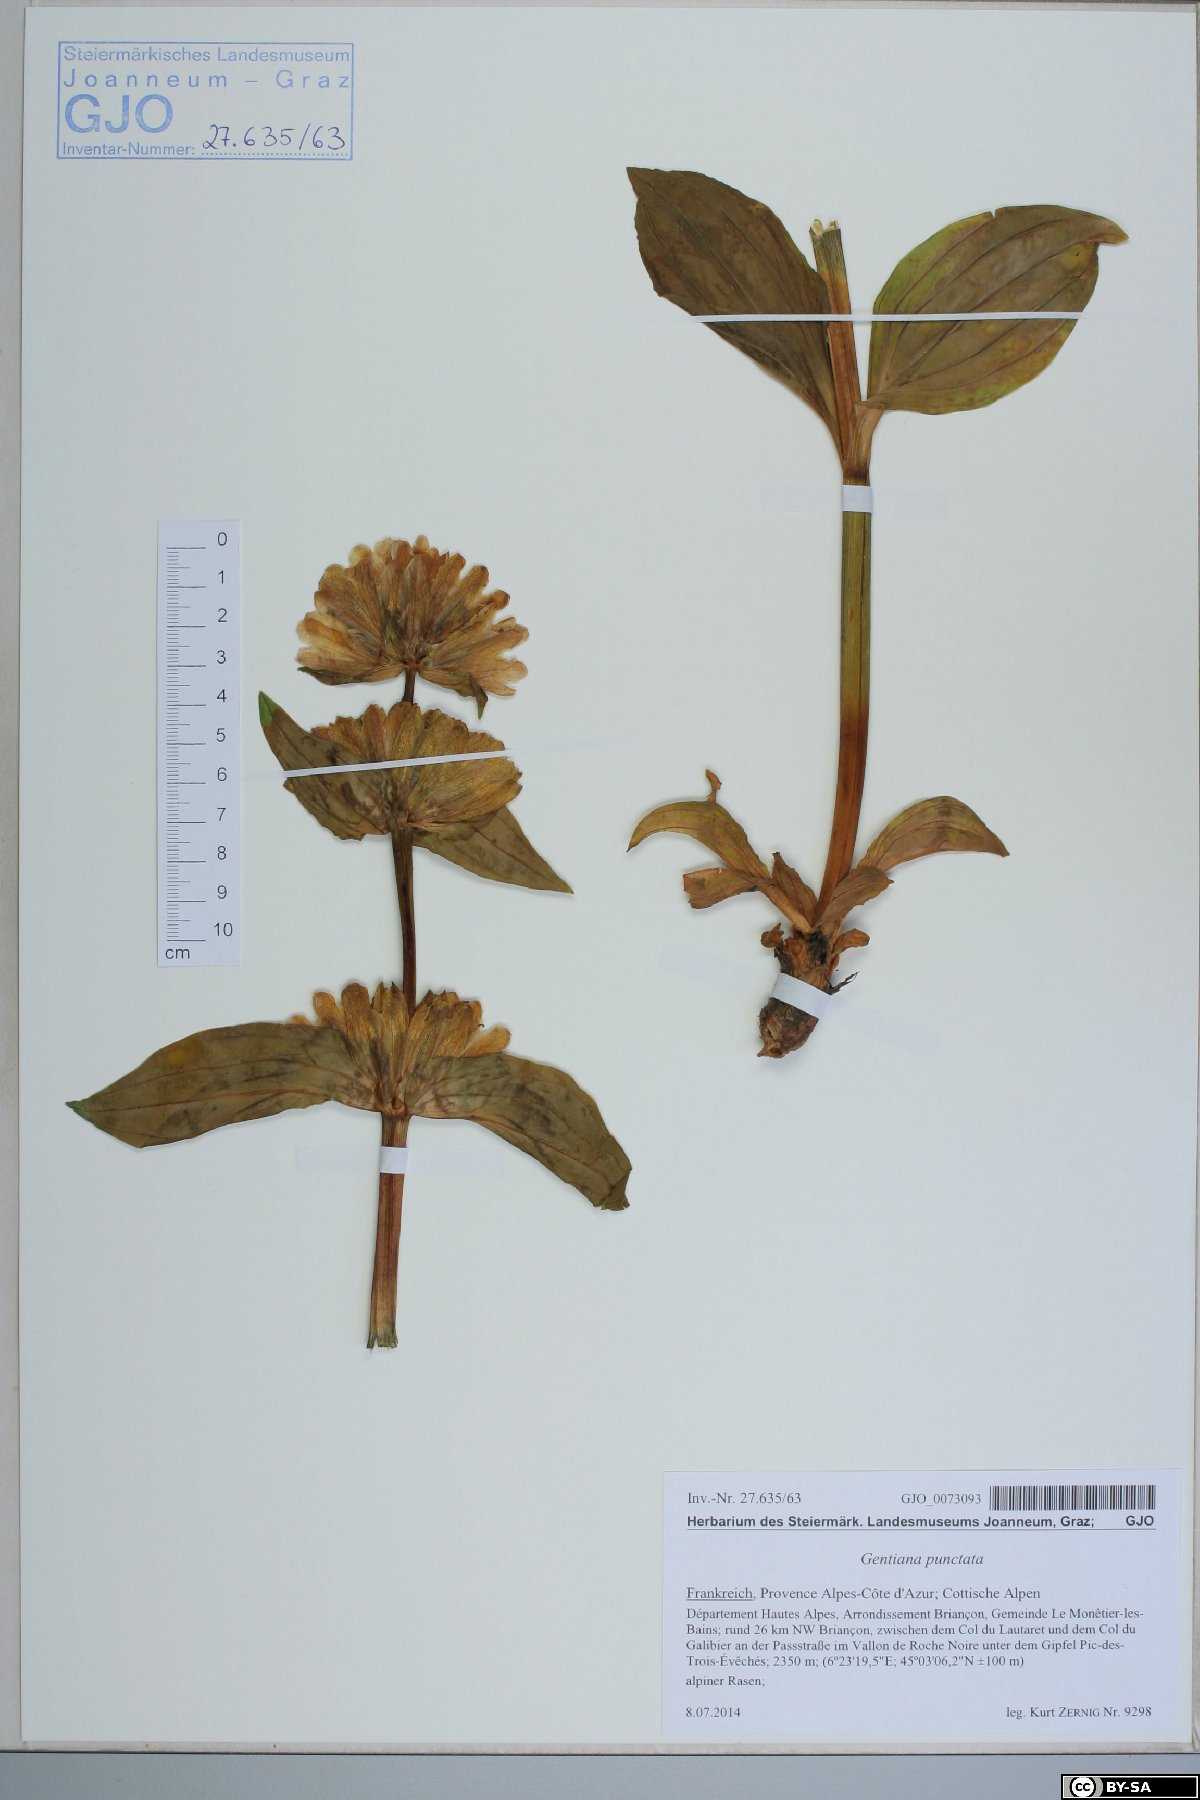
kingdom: Plantae
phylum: Tracheophyta
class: Magnoliopsida
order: Gentianales
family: Gentianaceae
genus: Gentiana
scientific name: Gentiana punctata
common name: Spotted gentian
